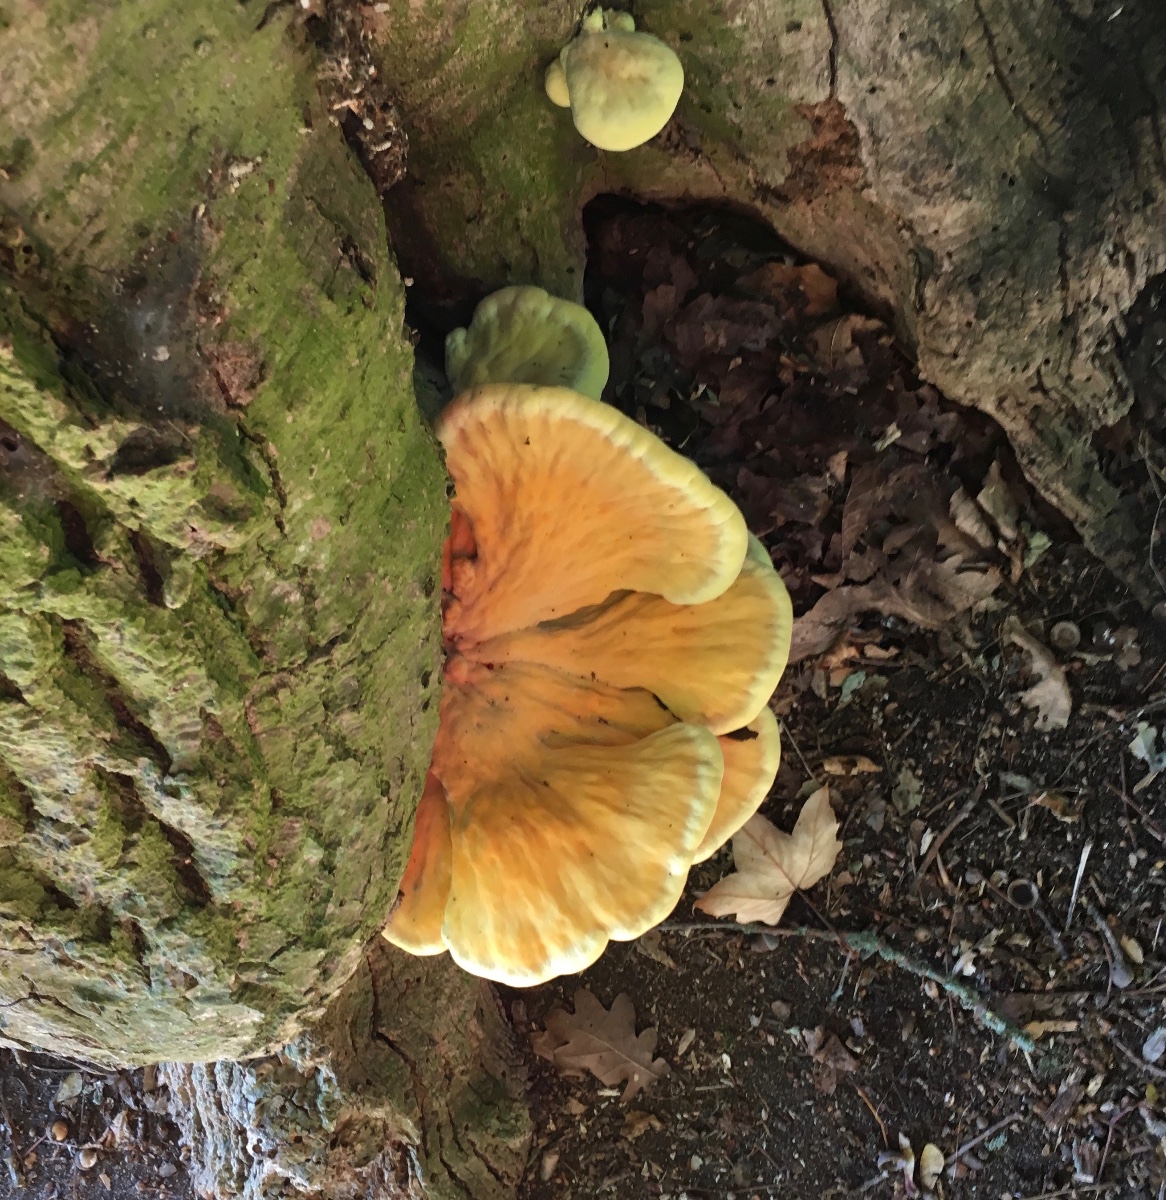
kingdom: Fungi
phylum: Basidiomycota
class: Agaricomycetes
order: Polyporales
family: Laetiporaceae
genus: Laetiporus
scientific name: Laetiporus sulphureus
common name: svovlporesvamp
